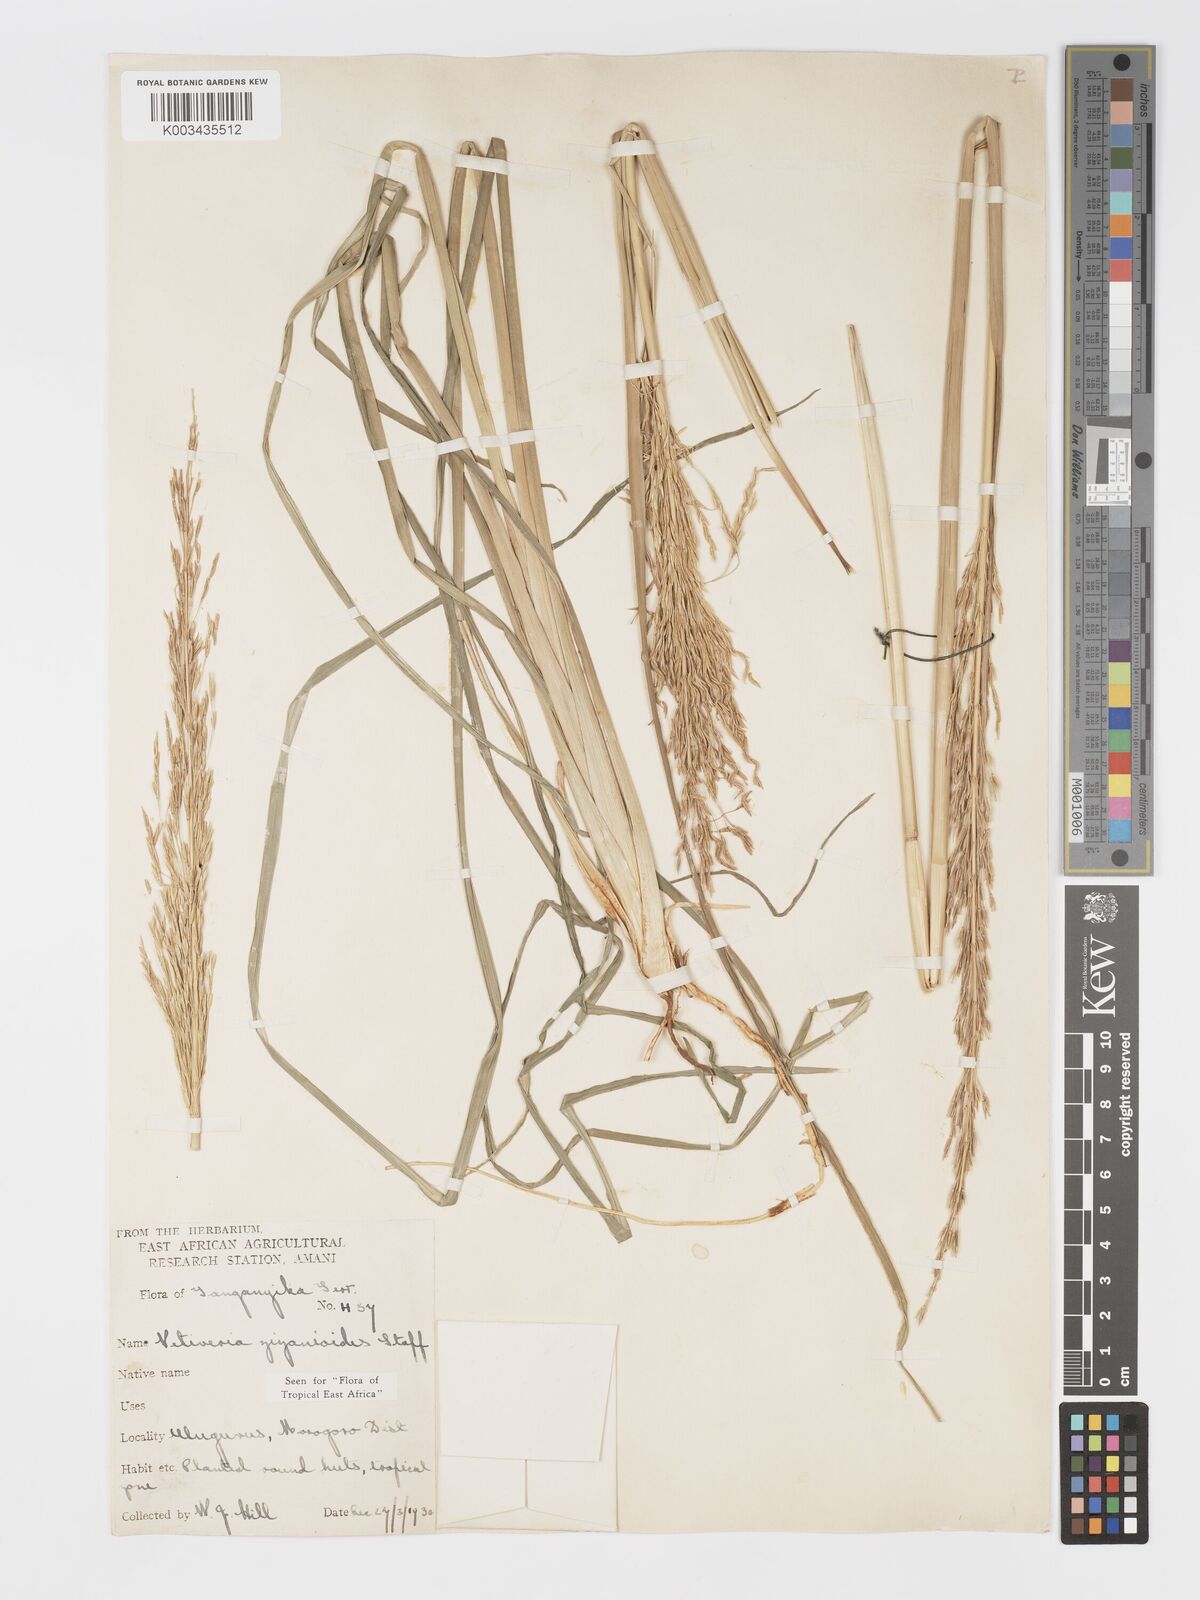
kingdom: Plantae
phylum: Tracheophyta
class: Liliopsida
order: Poales
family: Poaceae
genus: Chrysopogon
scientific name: Chrysopogon zizanioides
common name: False beardgrass
